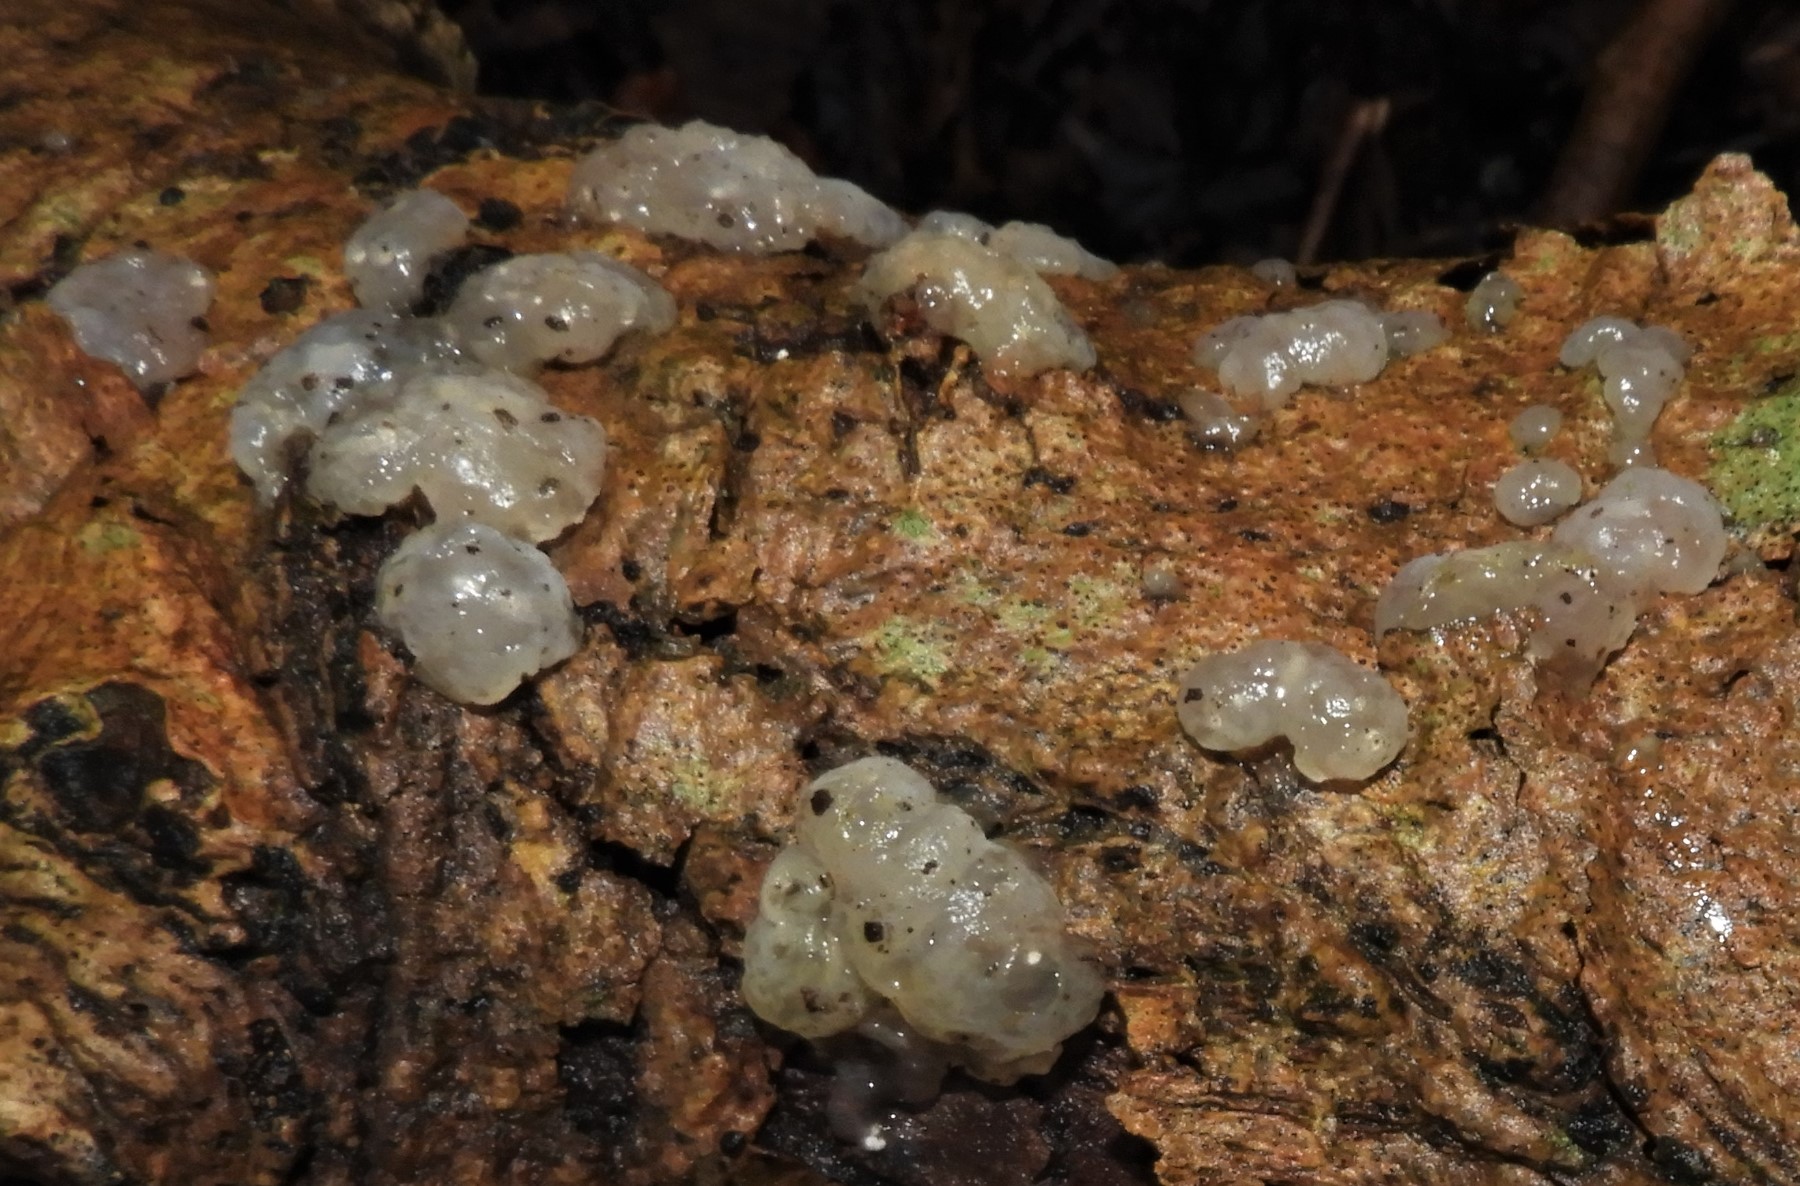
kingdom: Fungi
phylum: Basidiomycota
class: Agaricomycetes
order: Auriculariales
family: Hyaloriaceae
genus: Myxarium
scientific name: Myxarium nucleatum
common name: klar bævretop
